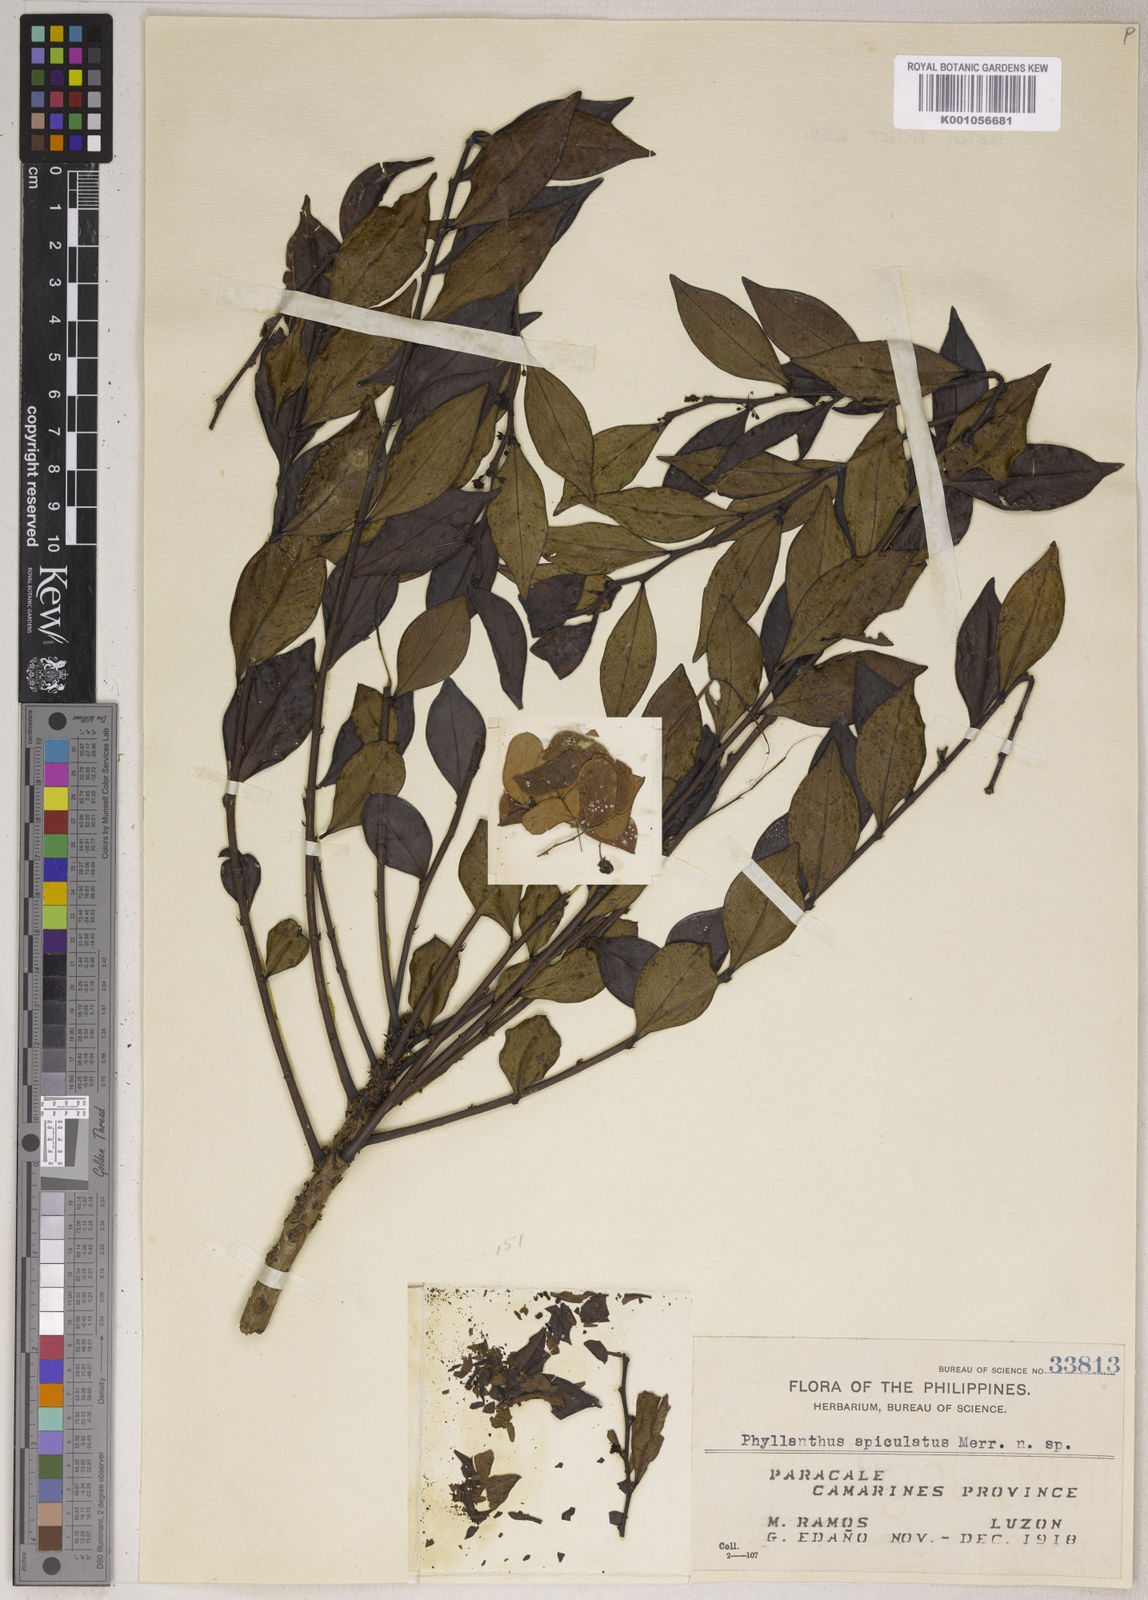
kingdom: Plantae
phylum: Tracheophyta
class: Magnoliopsida
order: Malpighiales
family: Phyllanthaceae
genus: Phyllanthus
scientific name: Phyllanthus apiculatus
